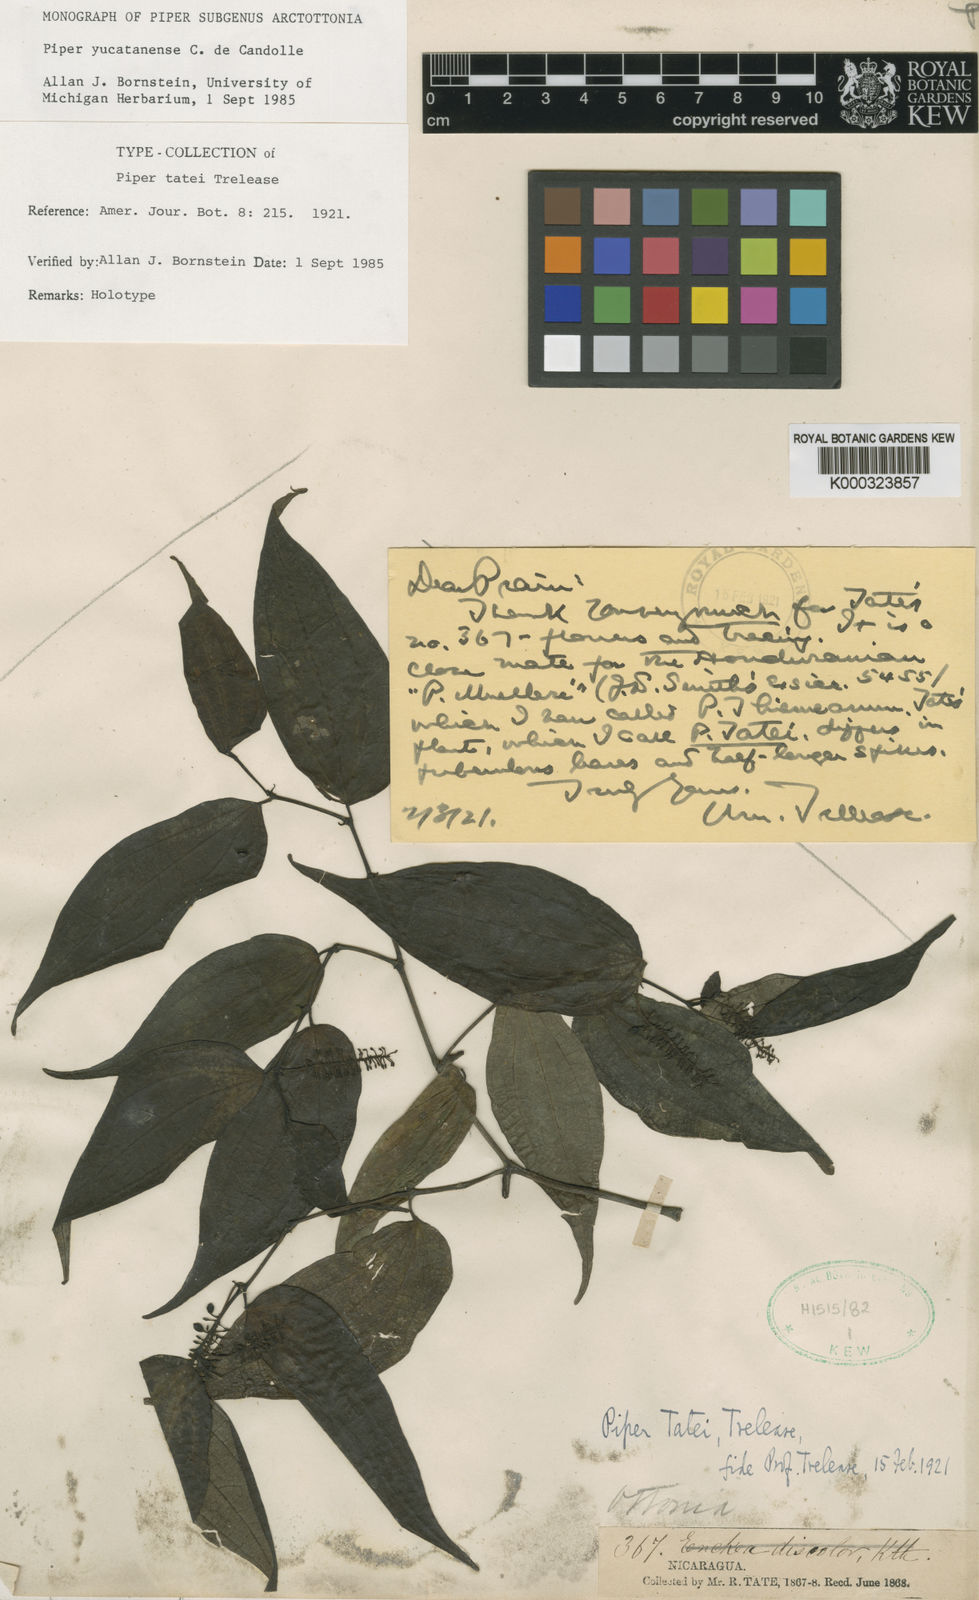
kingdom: Plantae
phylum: Tracheophyta
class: Magnoliopsida
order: Piperales
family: Piperaceae
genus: Piper
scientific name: Piper yucatanense
